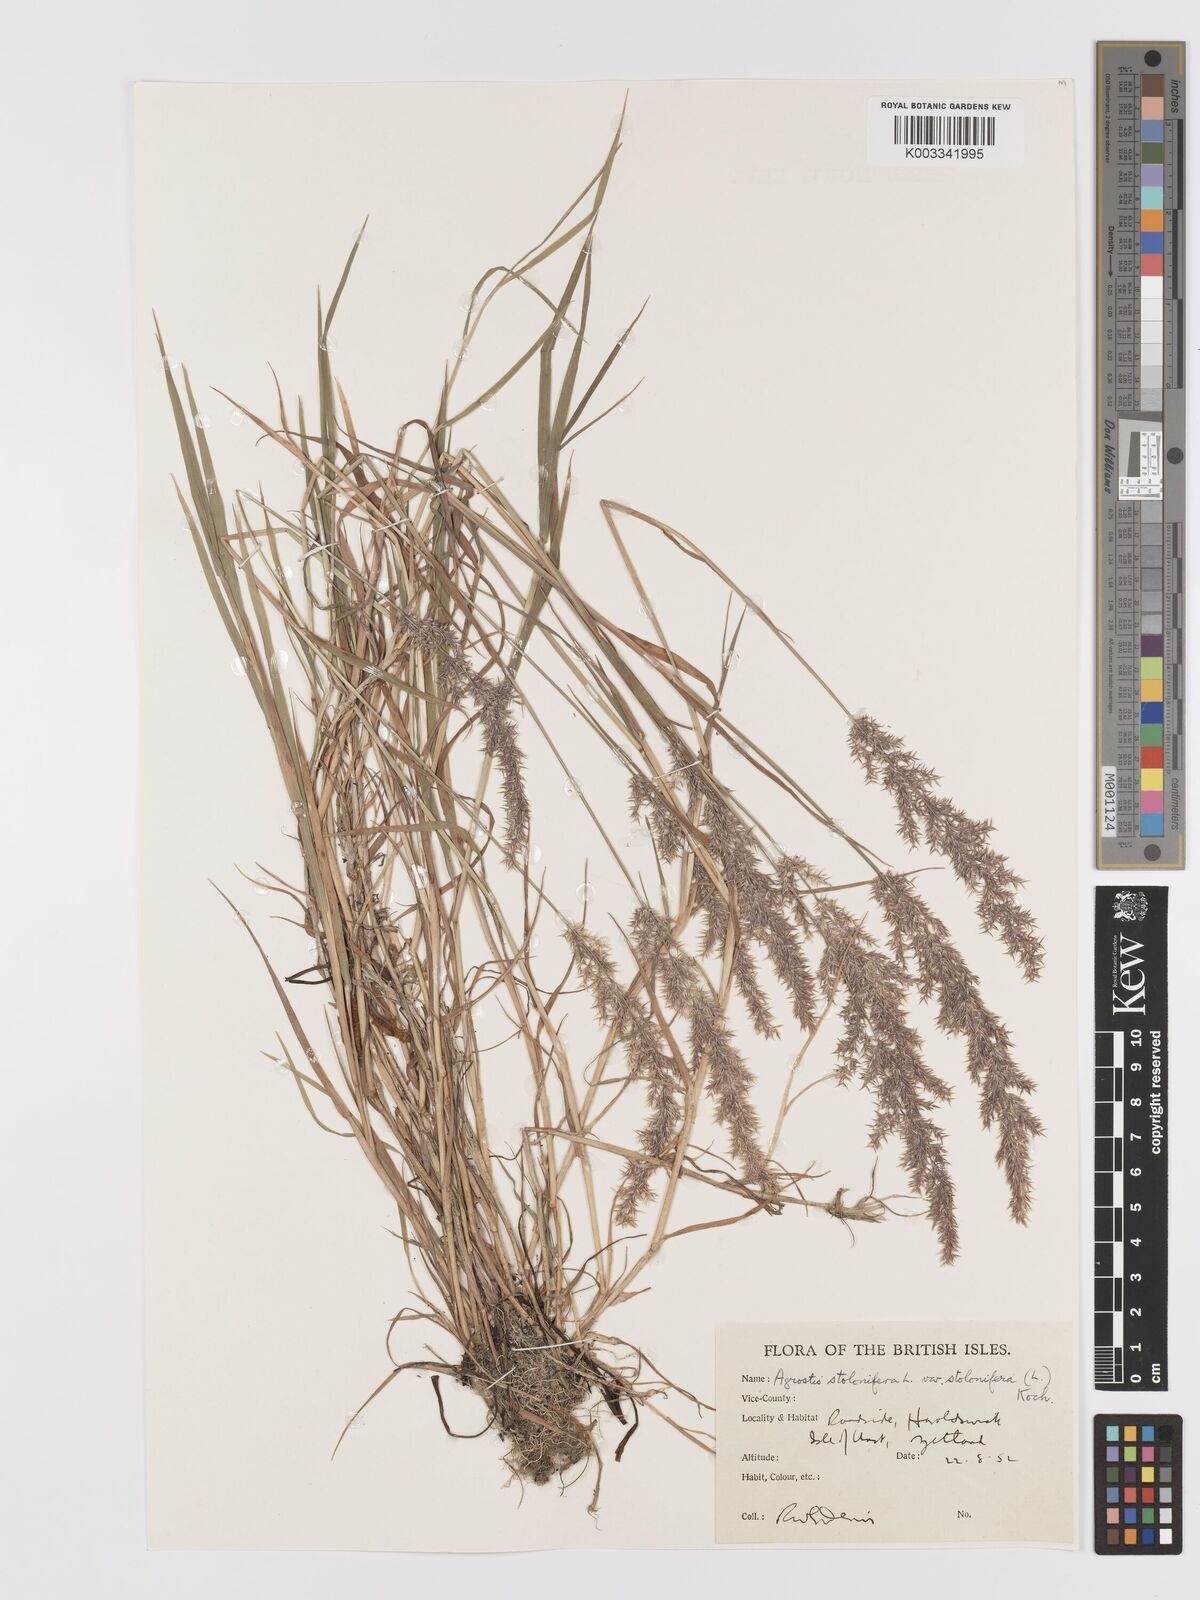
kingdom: Plantae
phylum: Tracheophyta
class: Liliopsida
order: Poales
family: Poaceae
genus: Agrostis
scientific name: Agrostis stolonifera
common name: Creeping bentgrass
